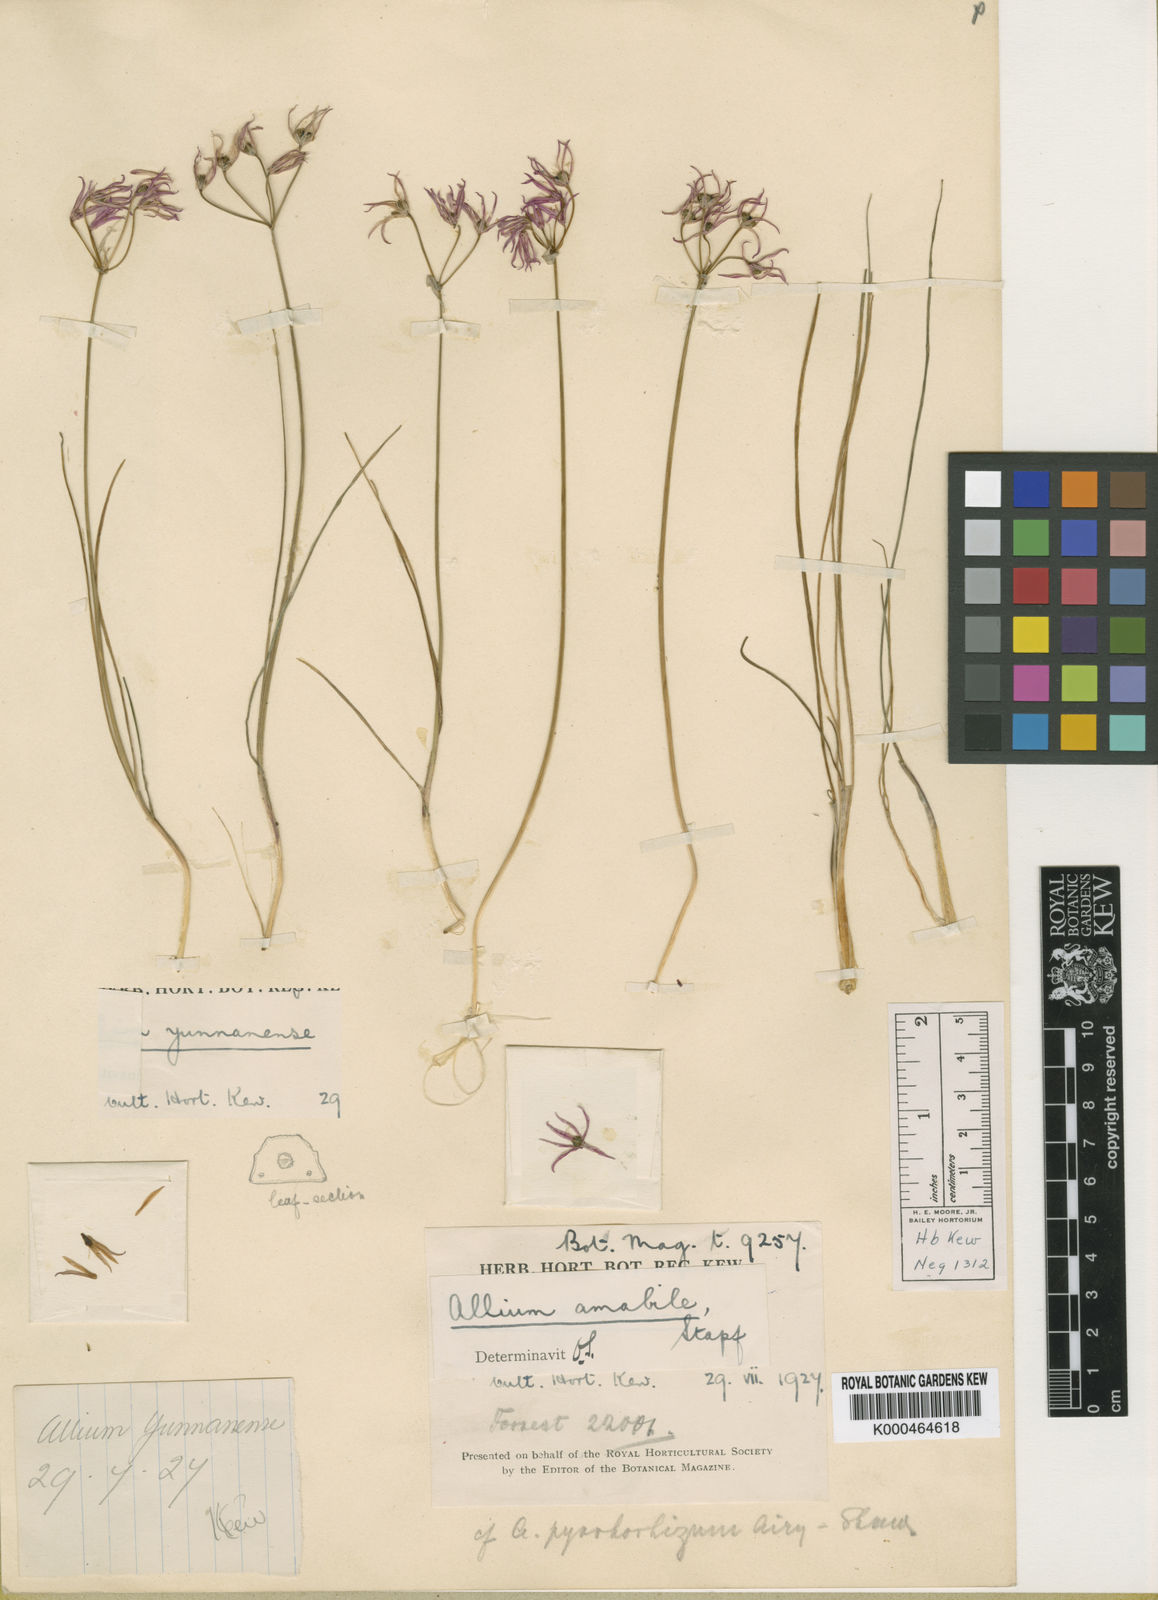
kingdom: Plantae
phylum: Tracheophyta
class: Liliopsida
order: Asparagales
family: Amaryllidaceae
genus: Allium
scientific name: Allium mairei
